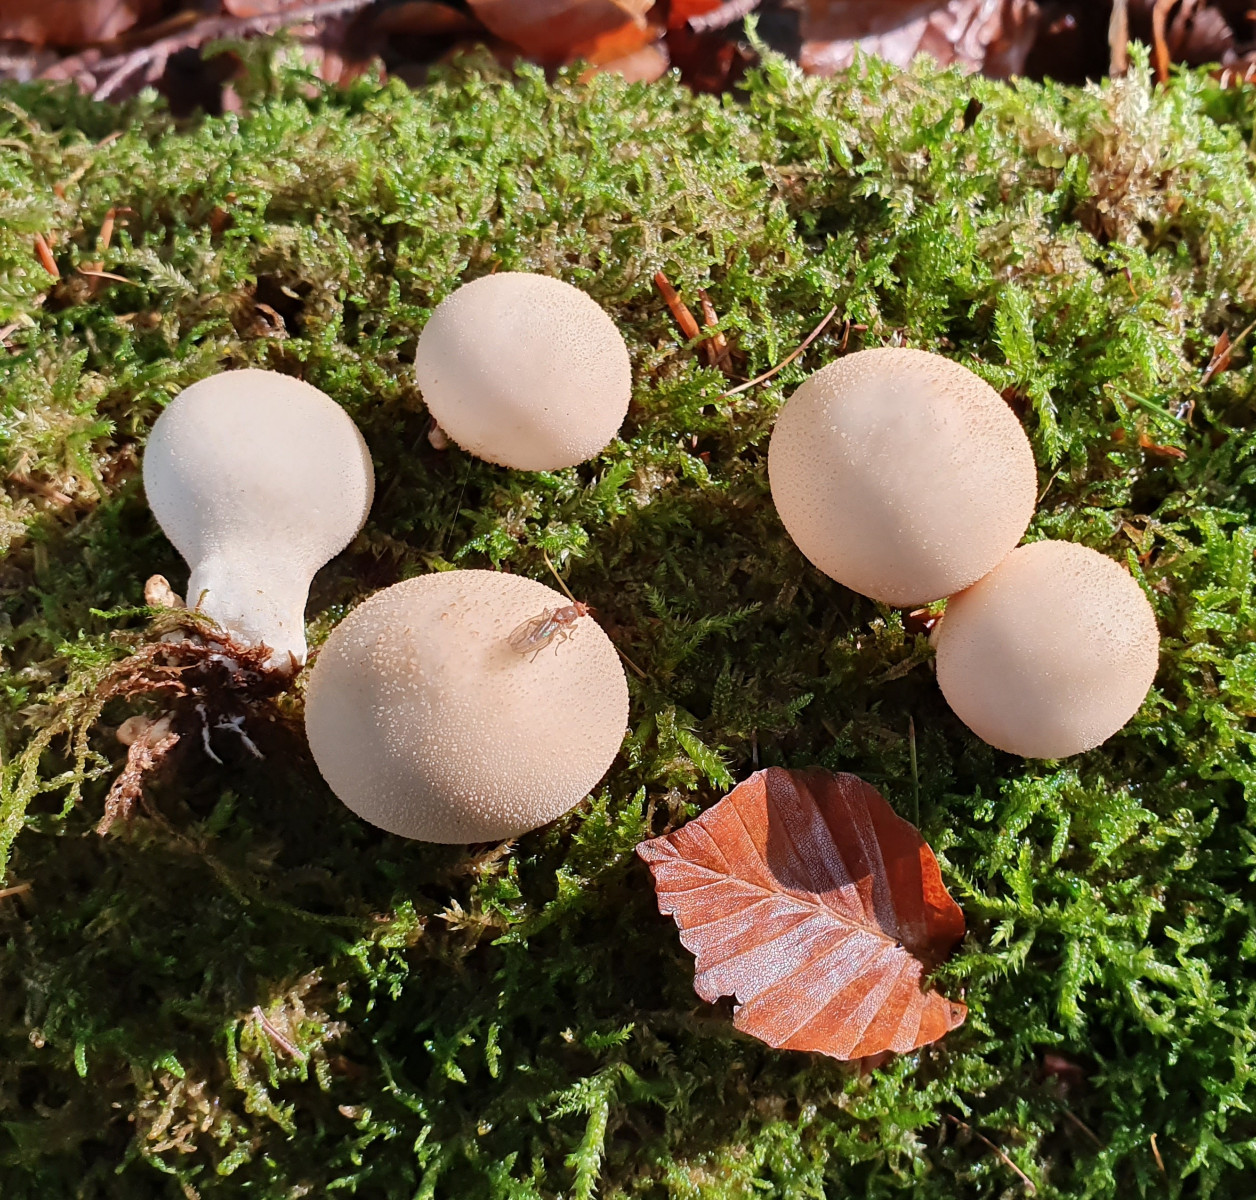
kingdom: Fungi
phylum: Basidiomycota
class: Agaricomycetes
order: Agaricales
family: Lycoperdaceae
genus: Apioperdon
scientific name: Apioperdon pyriforme
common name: pære-støvbold
